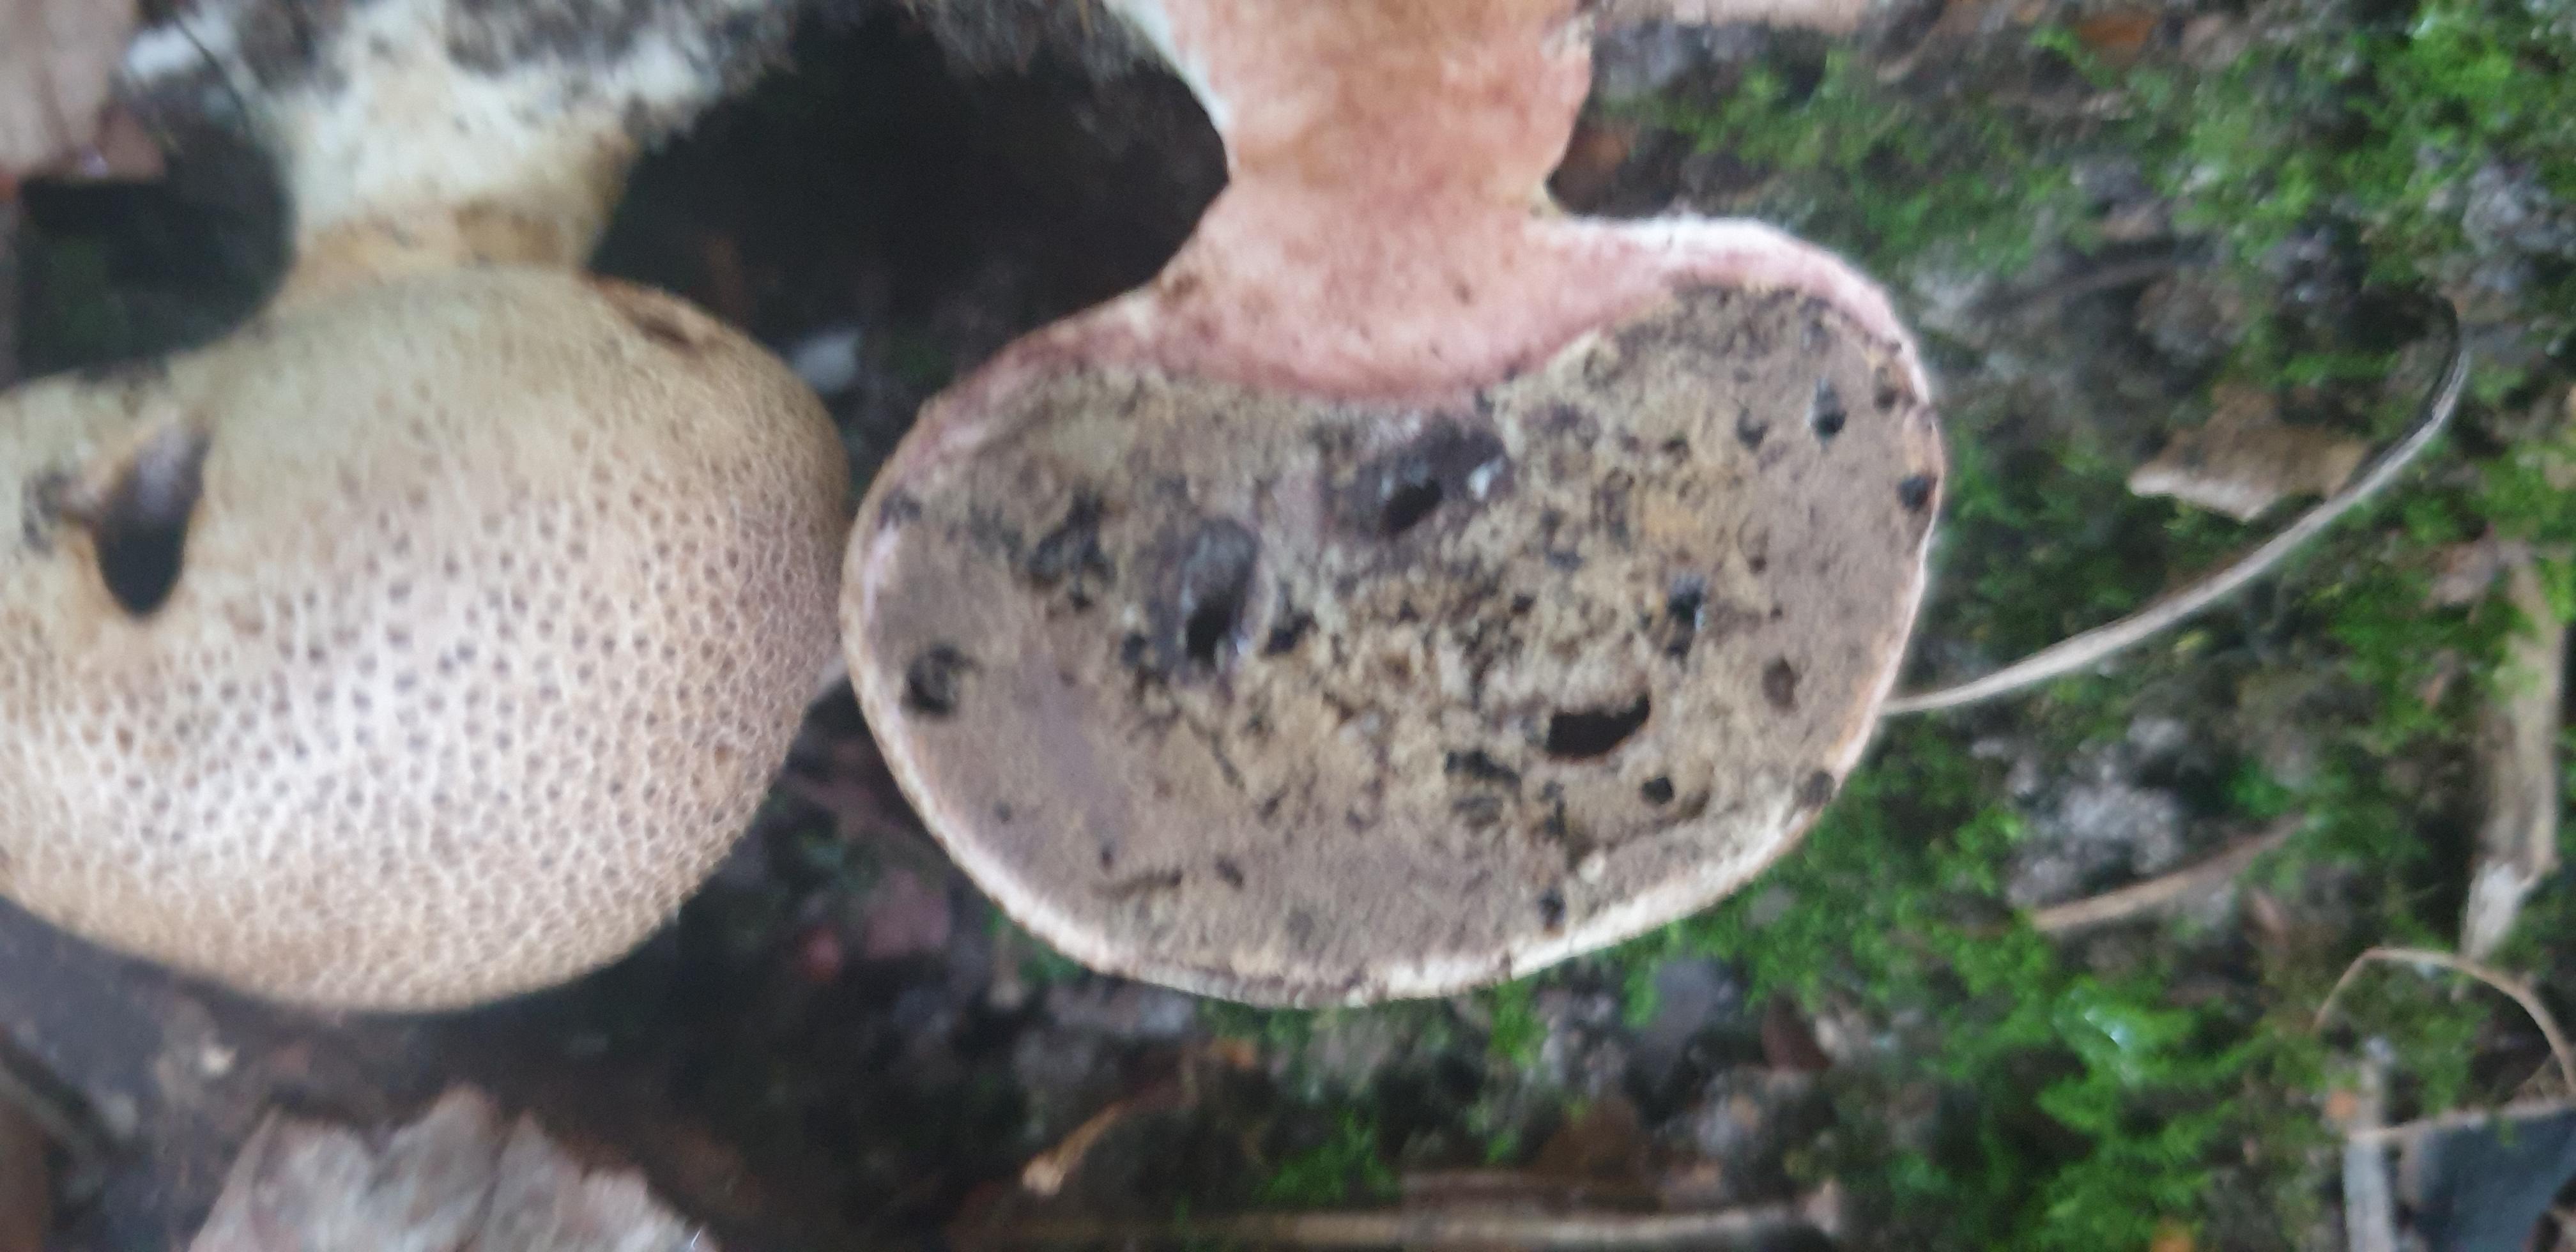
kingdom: Fungi
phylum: Basidiomycota
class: Agaricomycetes
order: Boletales
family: Sclerodermataceae
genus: Scleroderma
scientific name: Scleroderma verrucosum
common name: stilket bruskbold
